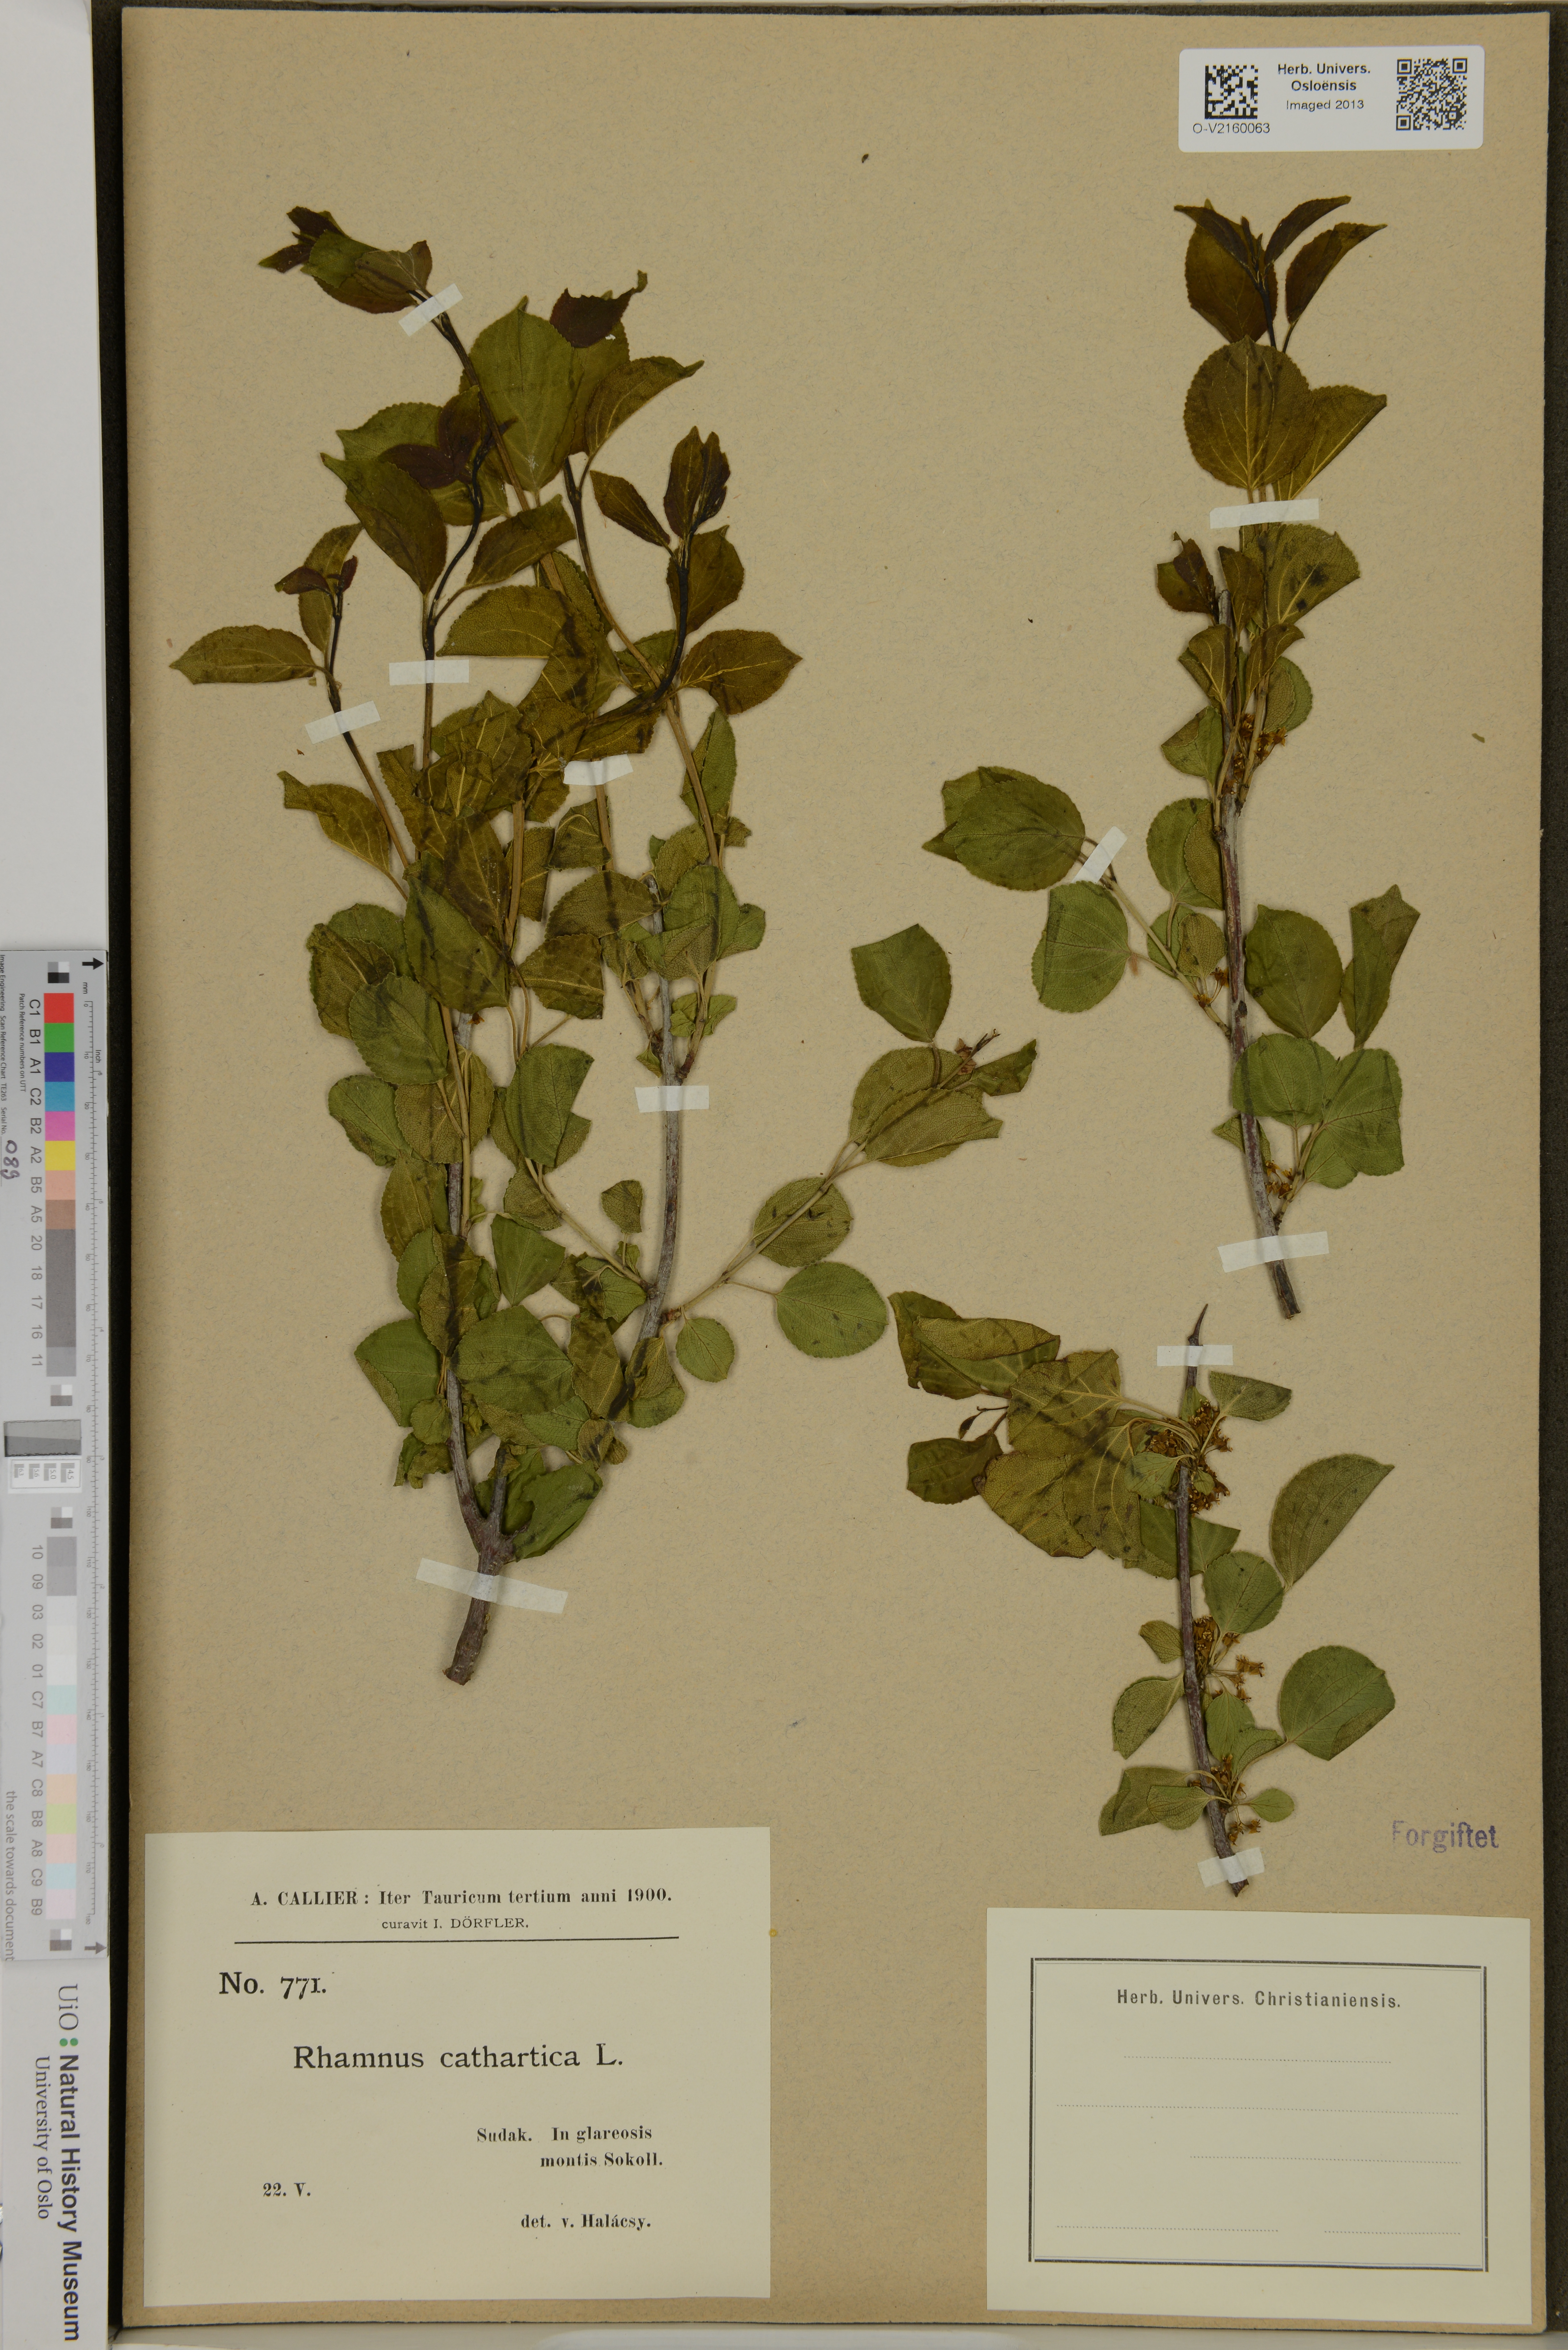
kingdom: Plantae
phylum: Tracheophyta
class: Magnoliopsida
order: Rosales
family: Rhamnaceae
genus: Rhamnus
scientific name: Rhamnus cathartica
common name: Common buckthorn
